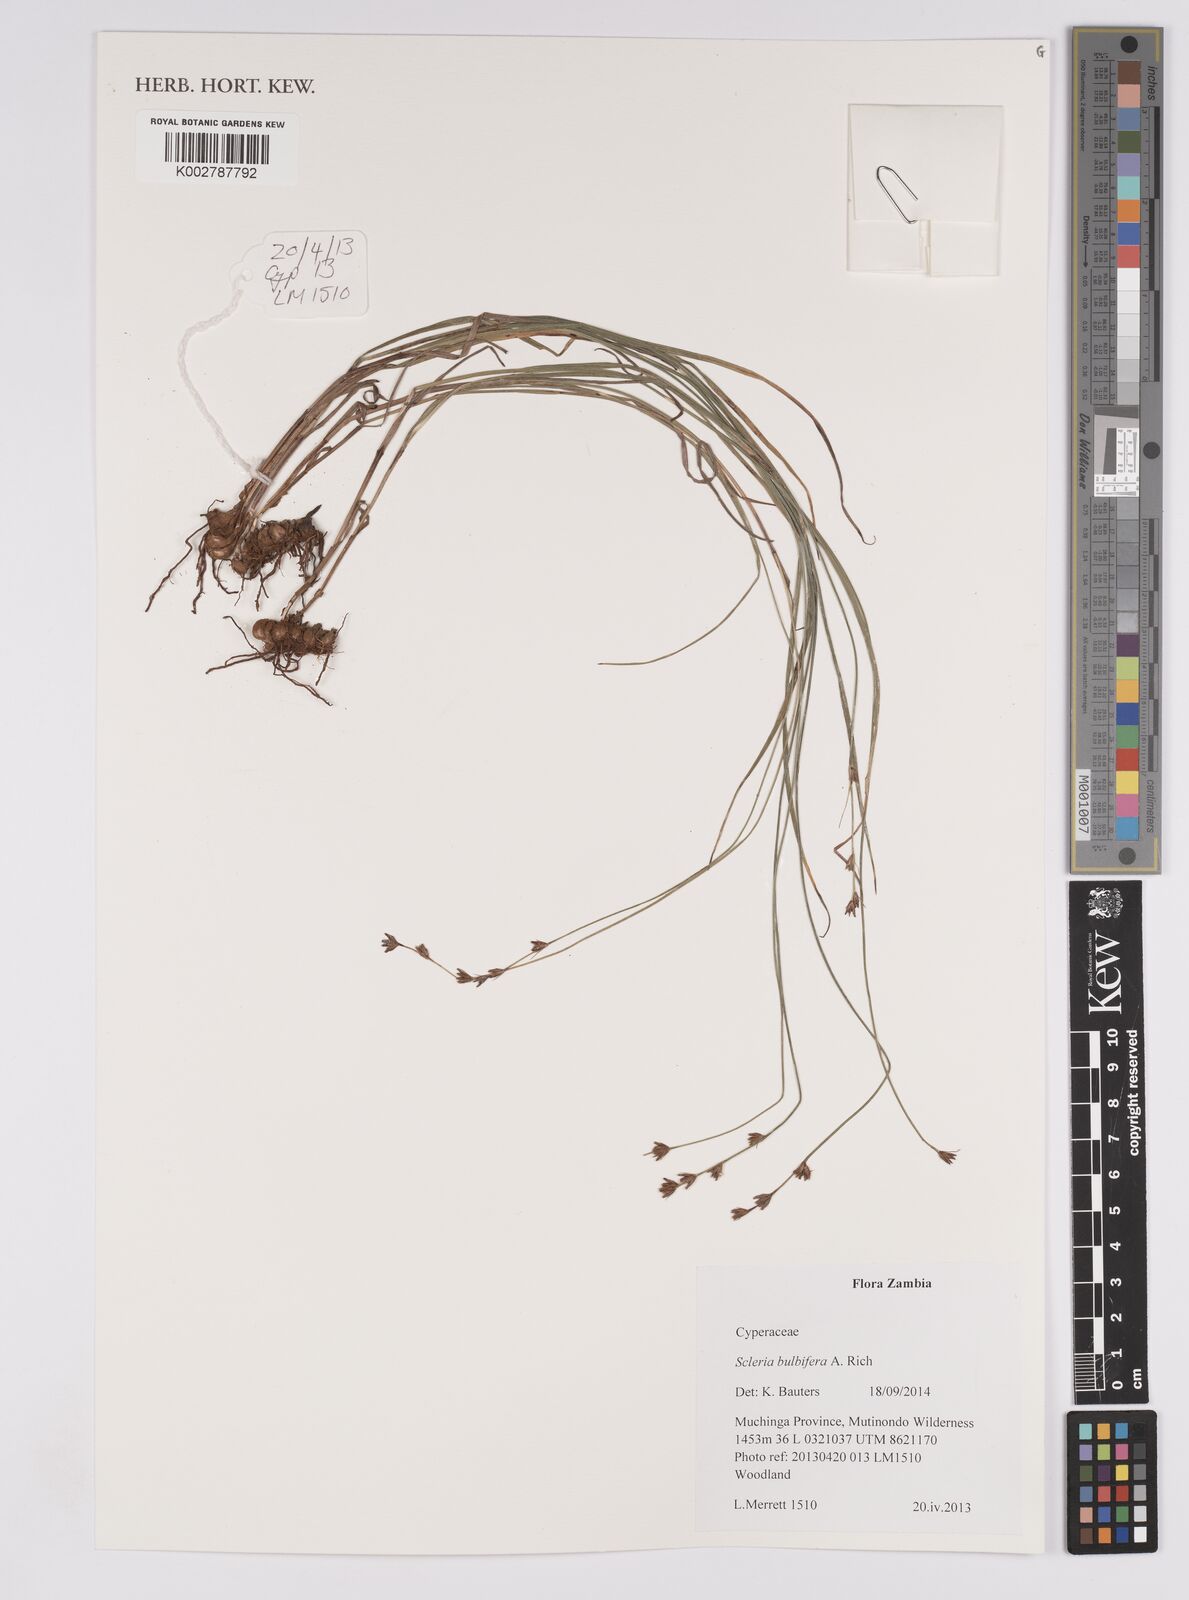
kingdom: Plantae
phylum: Tracheophyta
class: Liliopsida
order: Poales
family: Cyperaceae
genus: Scleria
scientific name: Scleria bulbifera
